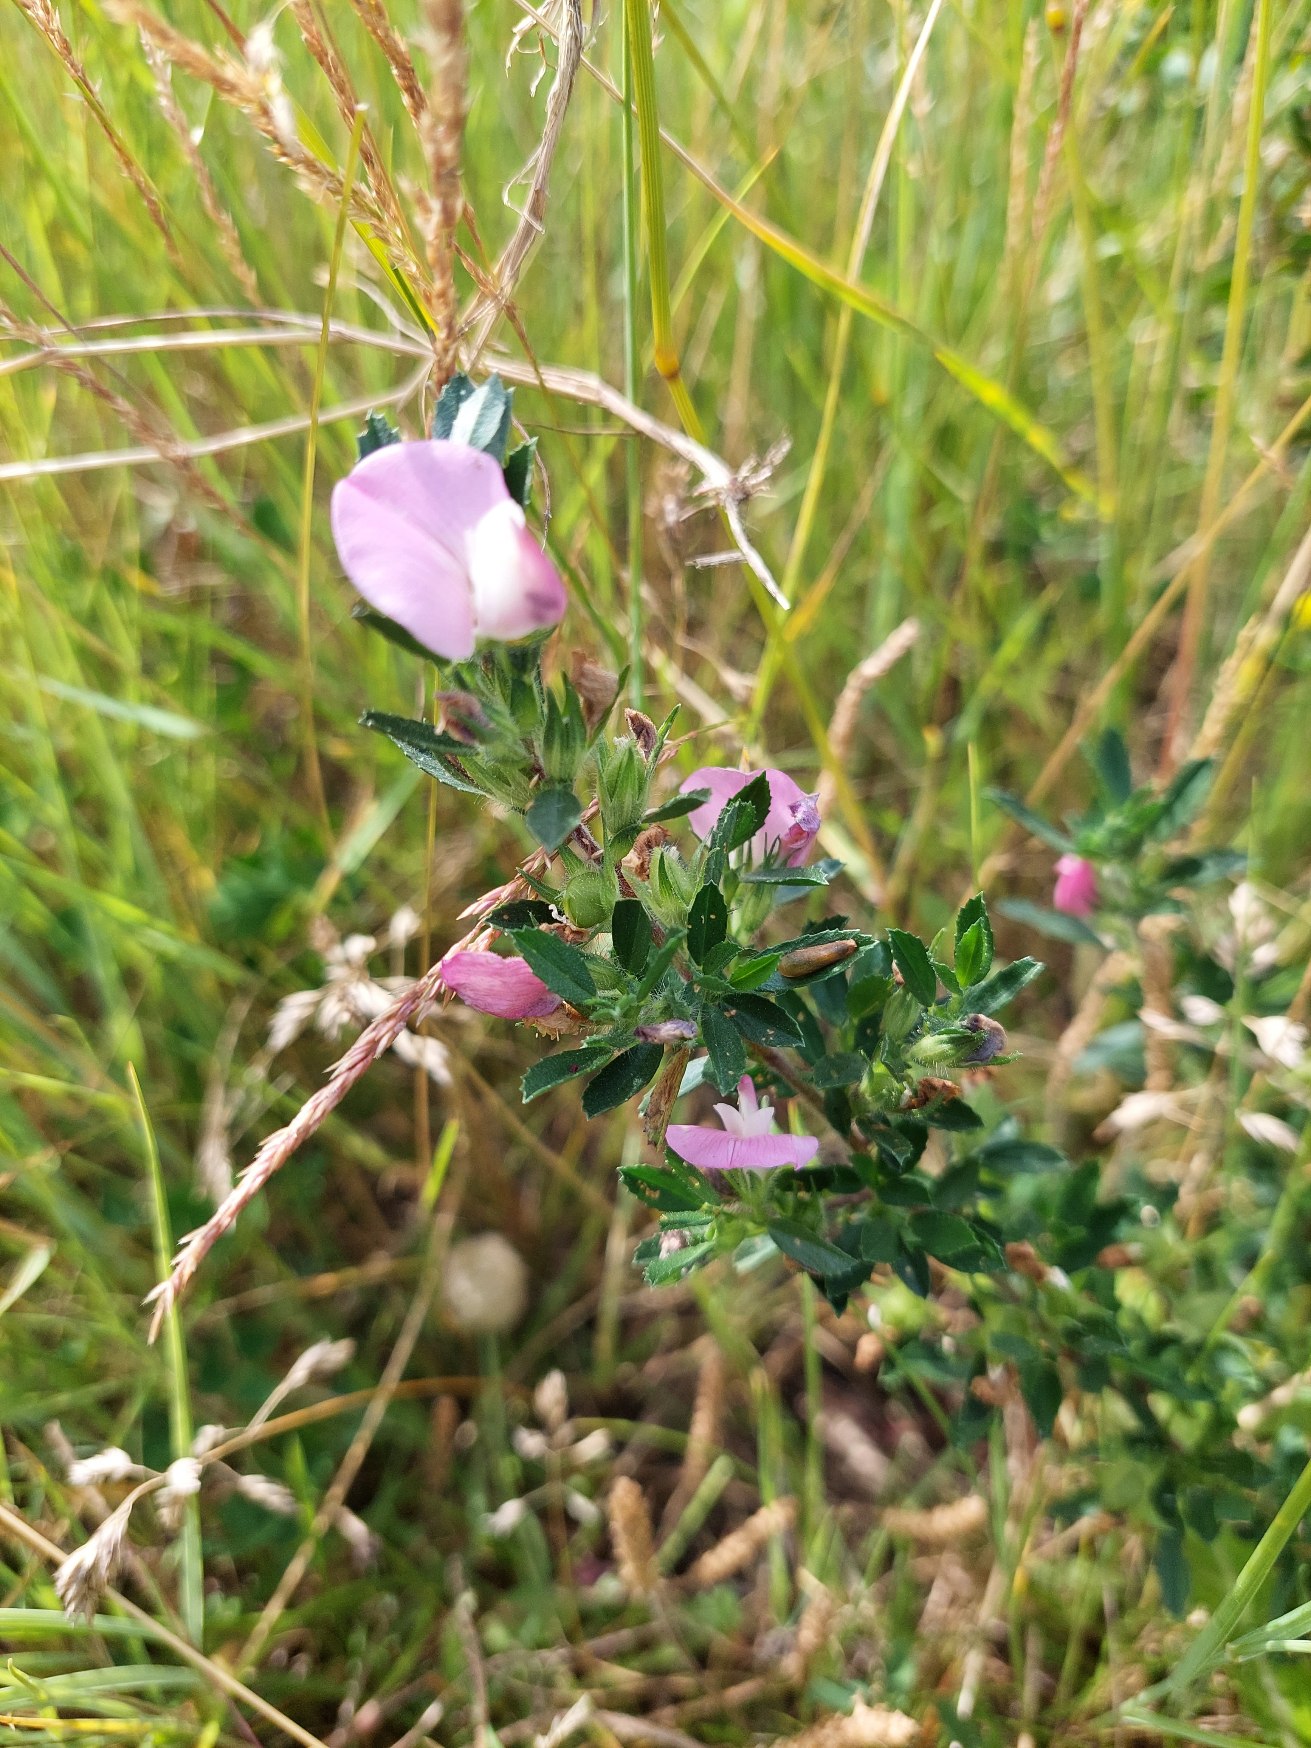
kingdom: Plantae
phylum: Tracheophyta
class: Magnoliopsida
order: Fabales
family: Fabaceae
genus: Ononis
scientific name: Ononis spinosa
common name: Strand-krageklo
